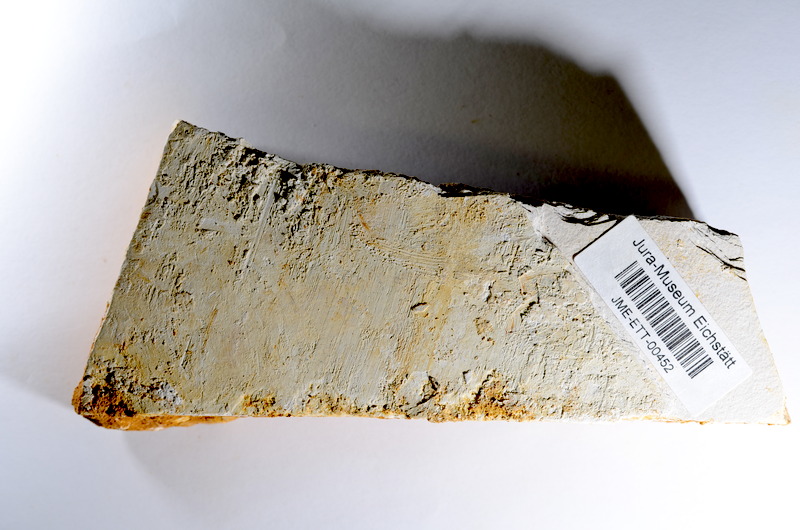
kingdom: Animalia
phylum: Chordata
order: Salmoniformes
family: Orthogonikleithridae
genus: Orthogonikleithrus
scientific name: Orthogonikleithrus hoelli
